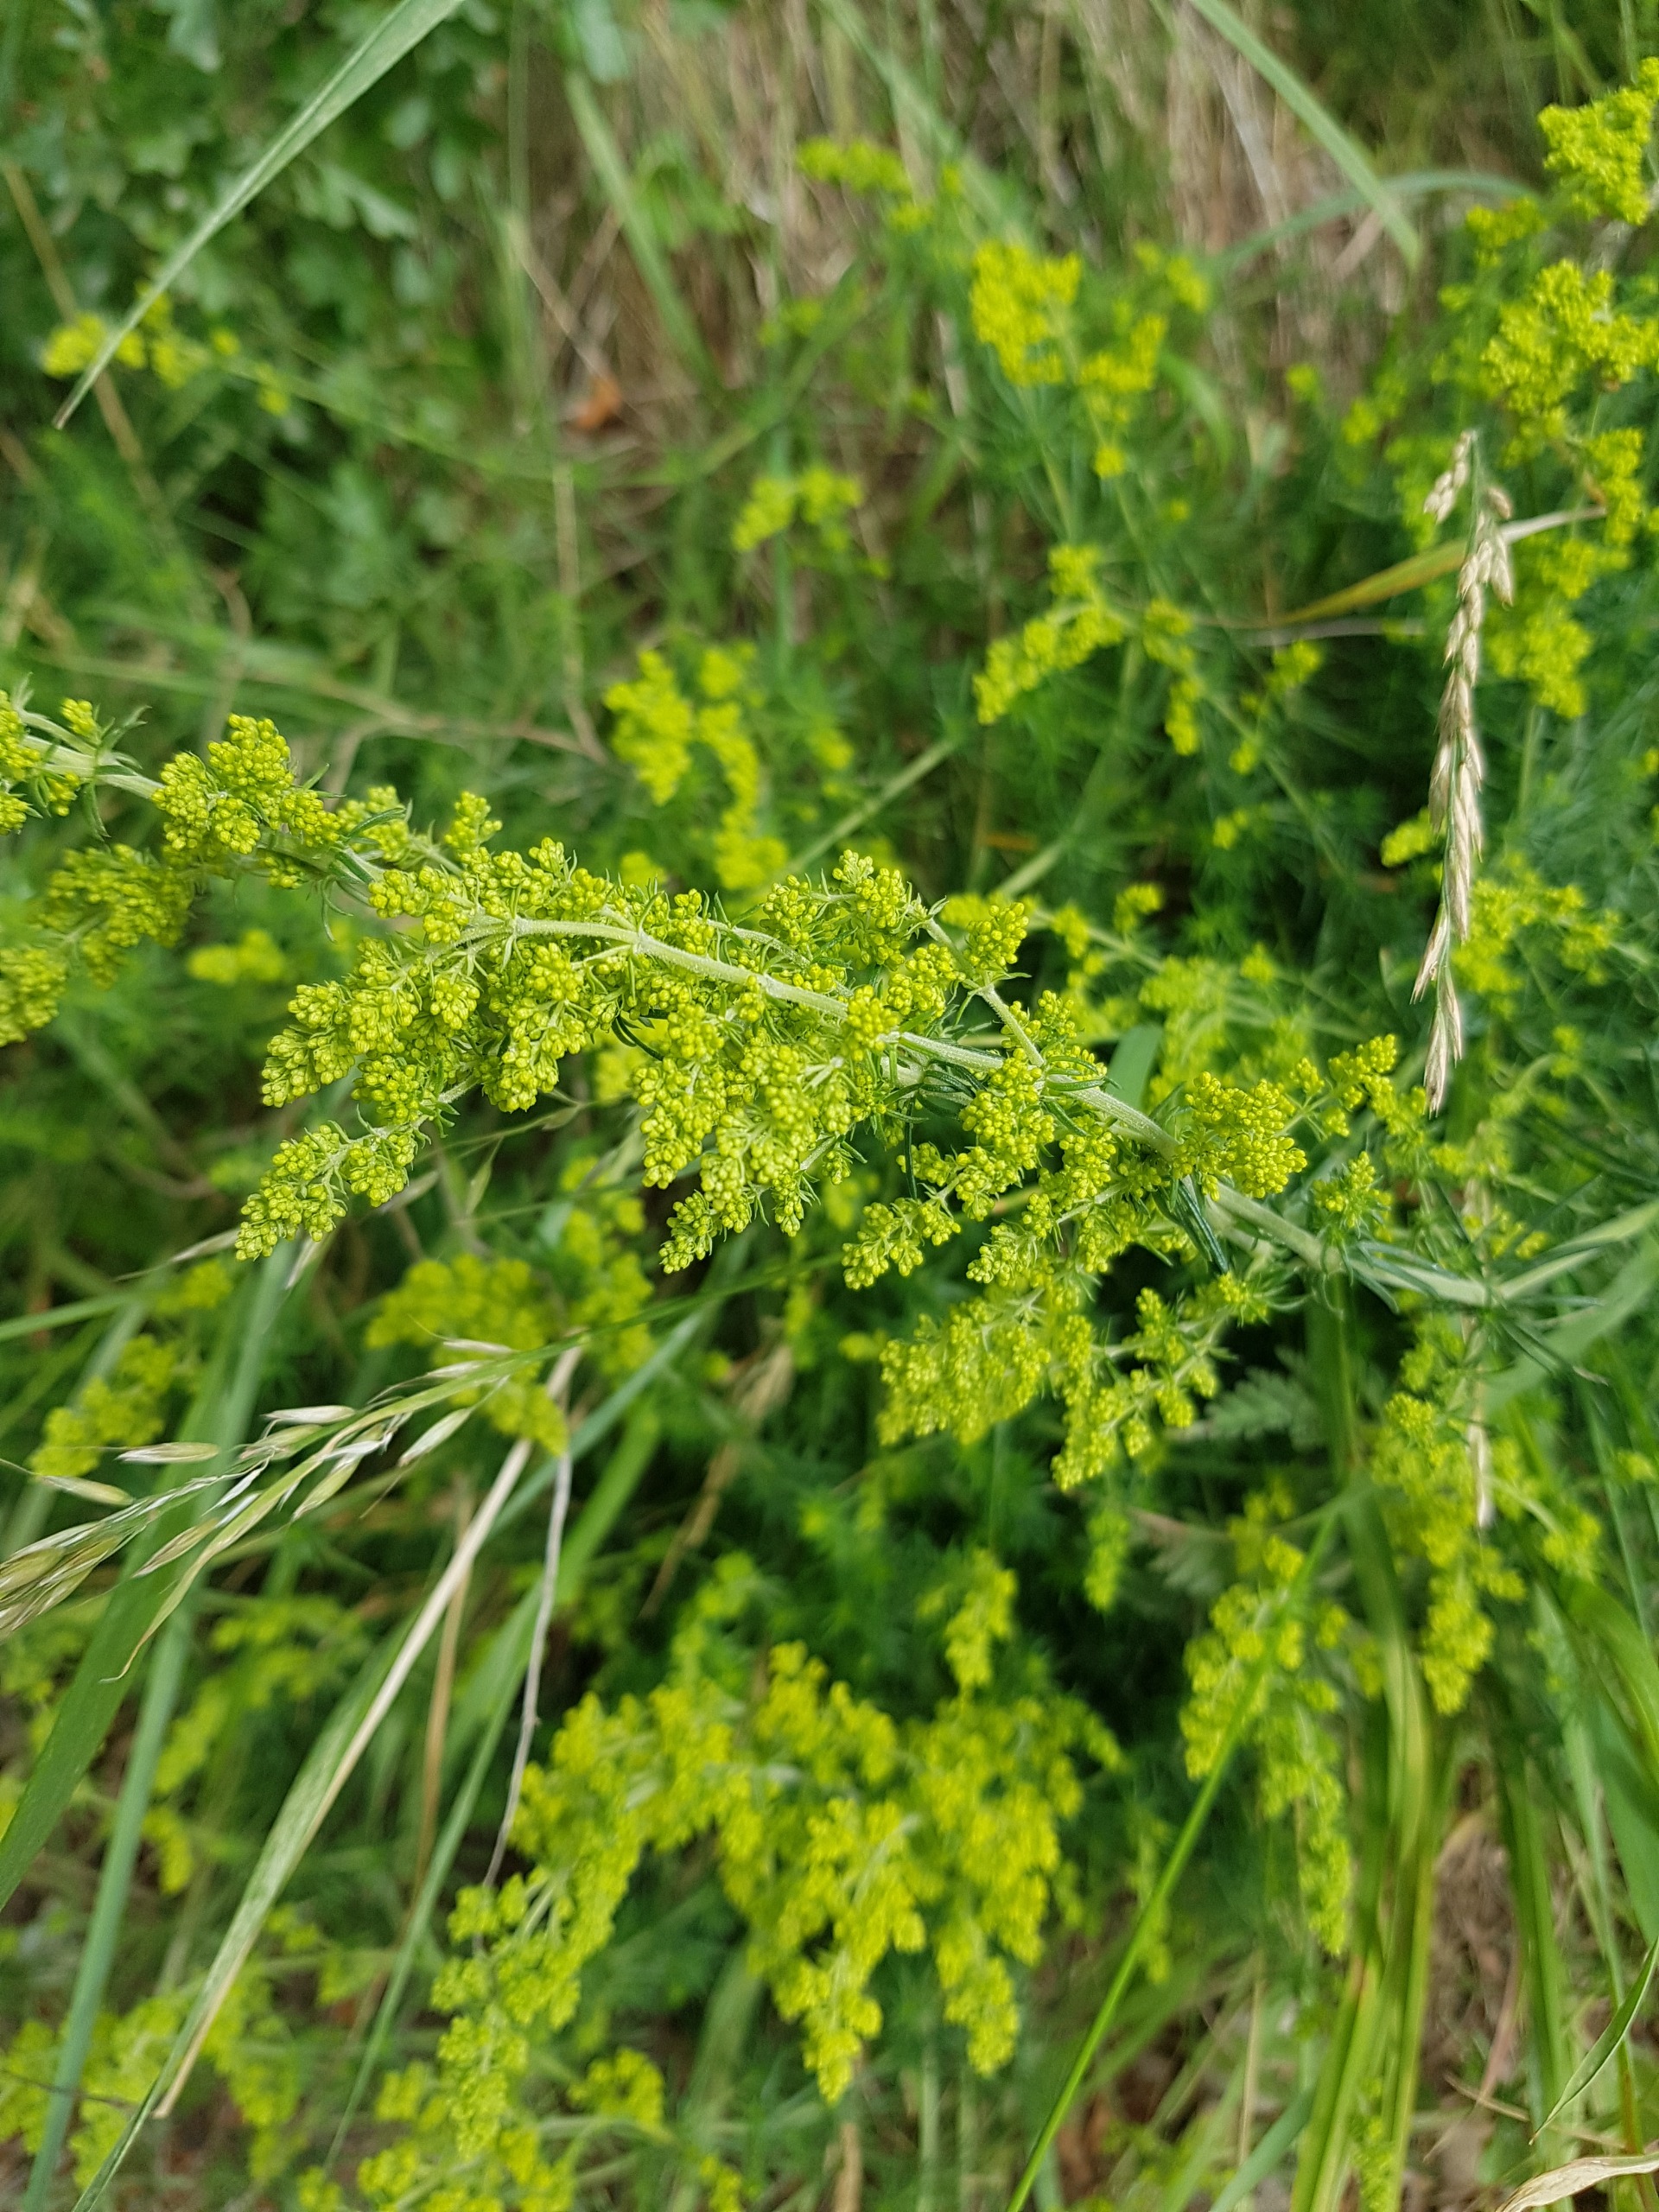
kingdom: Plantae
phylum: Tracheophyta
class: Magnoliopsida
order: Gentianales
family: Rubiaceae
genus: Galium
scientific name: Galium verum
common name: Gul snerre
